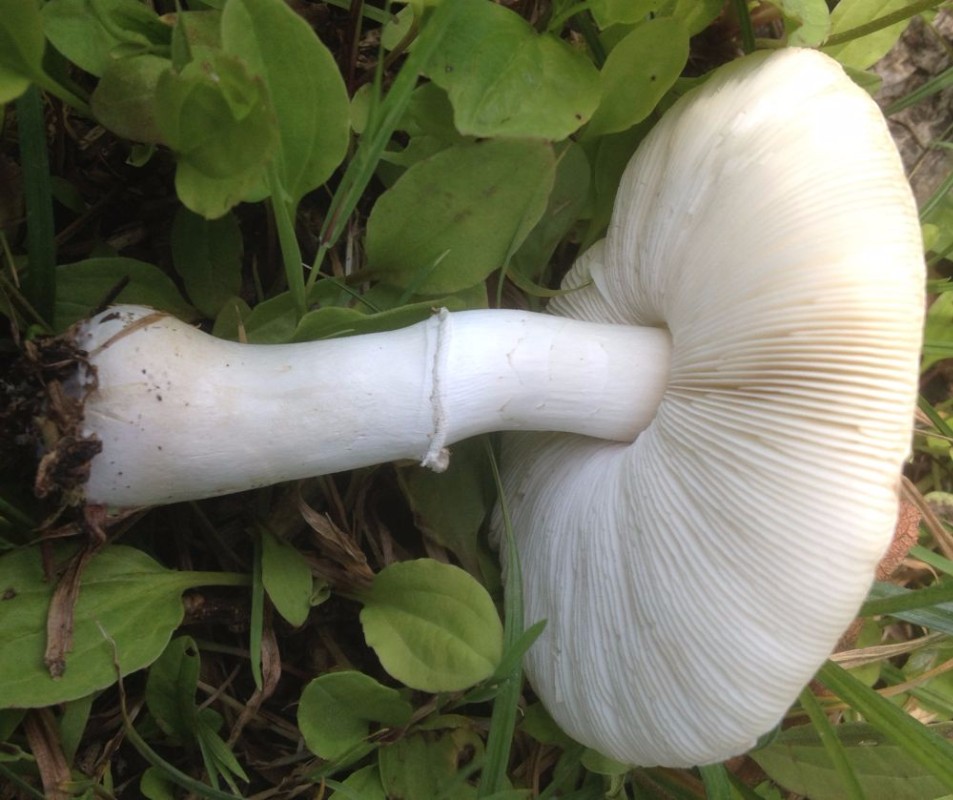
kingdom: Fungi
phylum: Basidiomycota
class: Agaricomycetes
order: Agaricales
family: Agaricaceae
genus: Leucoagaricus
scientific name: Leucoagaricus leucothites
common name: rosabladet silkehat
